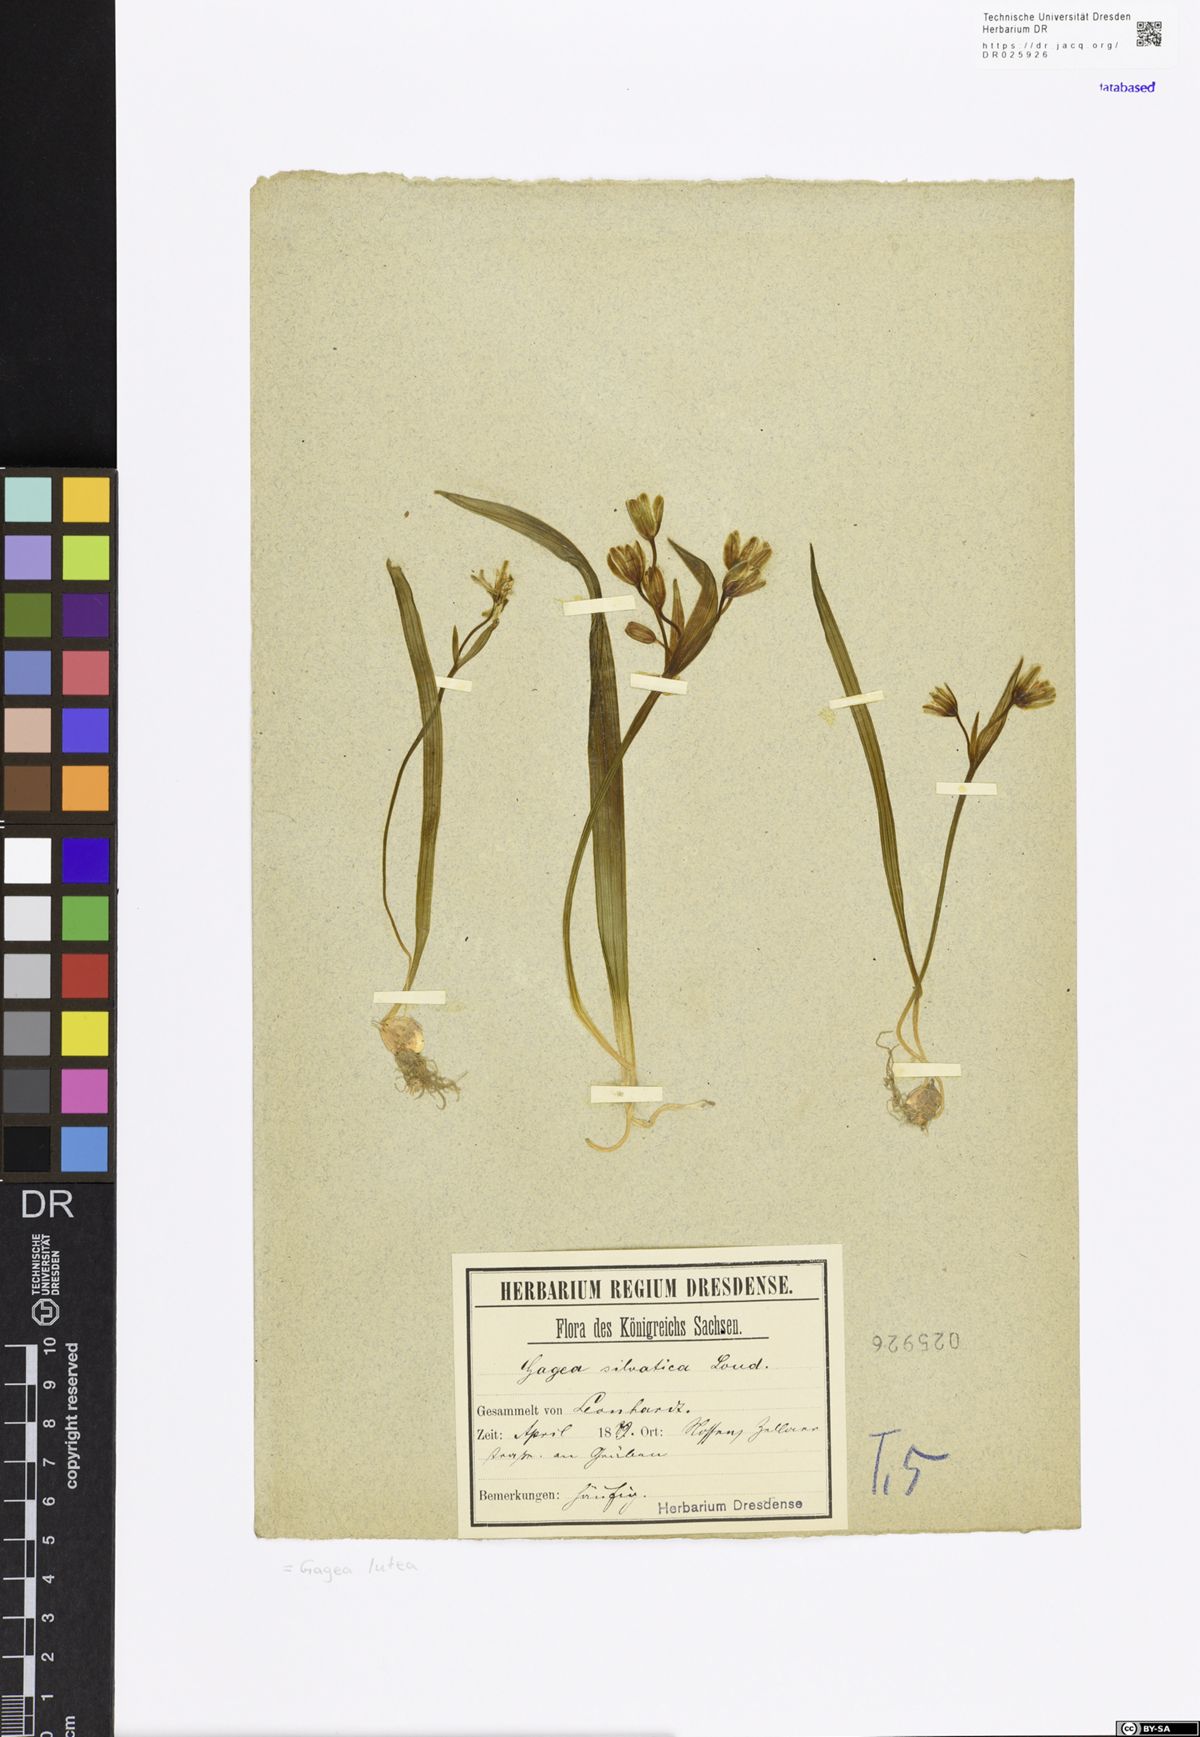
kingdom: Plantae
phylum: Tracheophyta
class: Liliopsida
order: Liliales
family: Liliaceae
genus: Gagea
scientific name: Gagea lutea
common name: Yellow star-of-bethlehem
